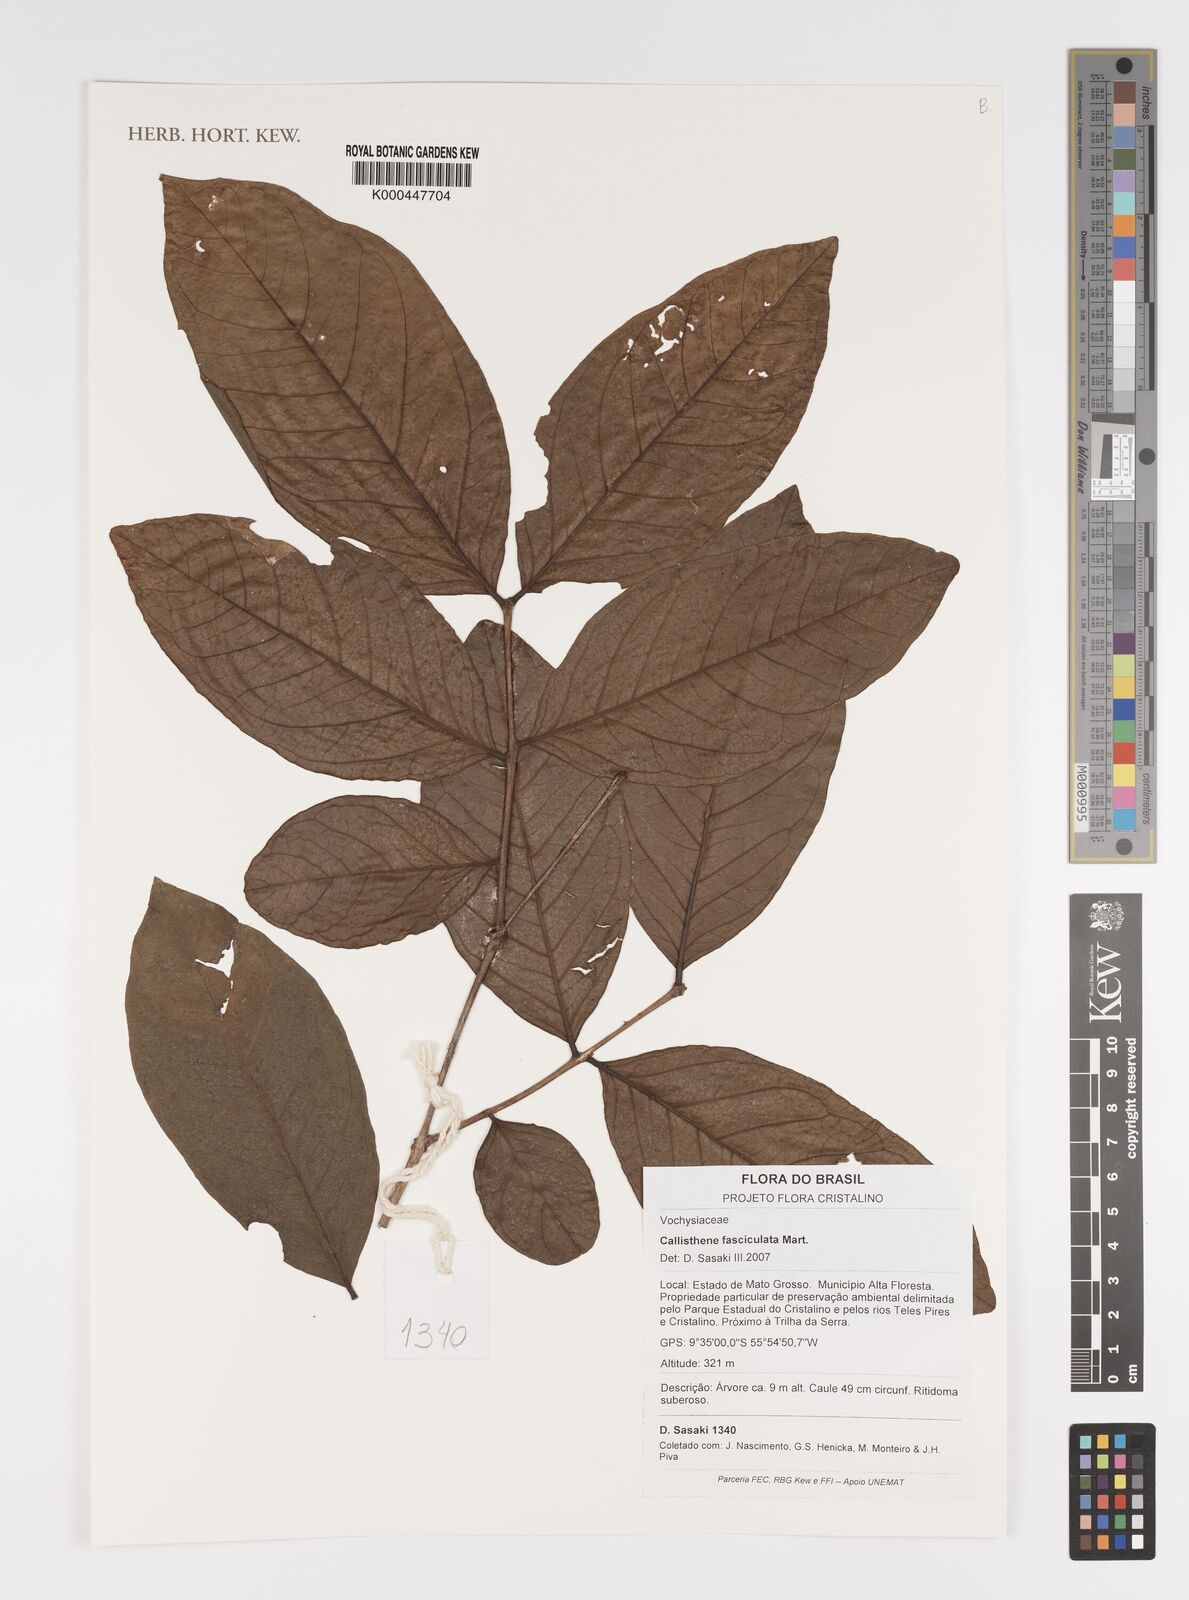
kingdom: Plantae
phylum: Tracheophyta
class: Magnoliopsida
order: Myrtales
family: Vochysiaceae
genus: Callisthene
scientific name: Callisthene fasciculata
